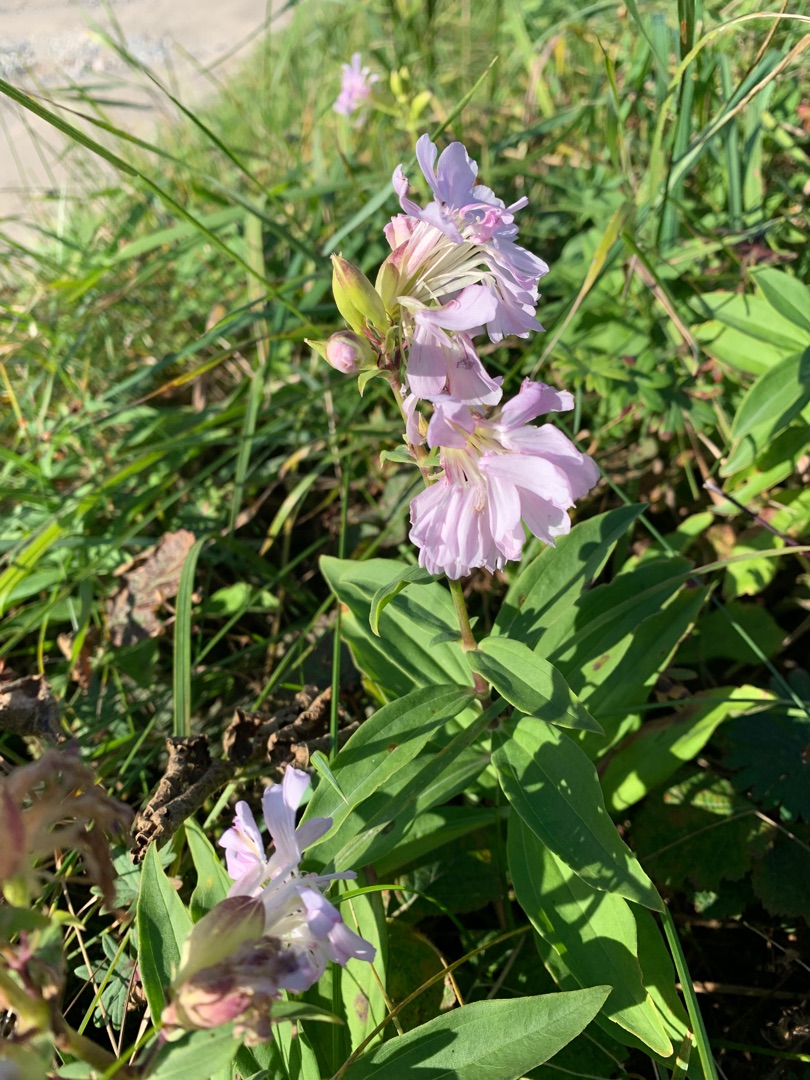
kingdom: Plantae
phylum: Tracheophyta
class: Magnoliopsida
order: Caryophyllales
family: Caryophyllaceae
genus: Saponaria
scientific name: Saponaria officinalis
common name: Sæbeurt
